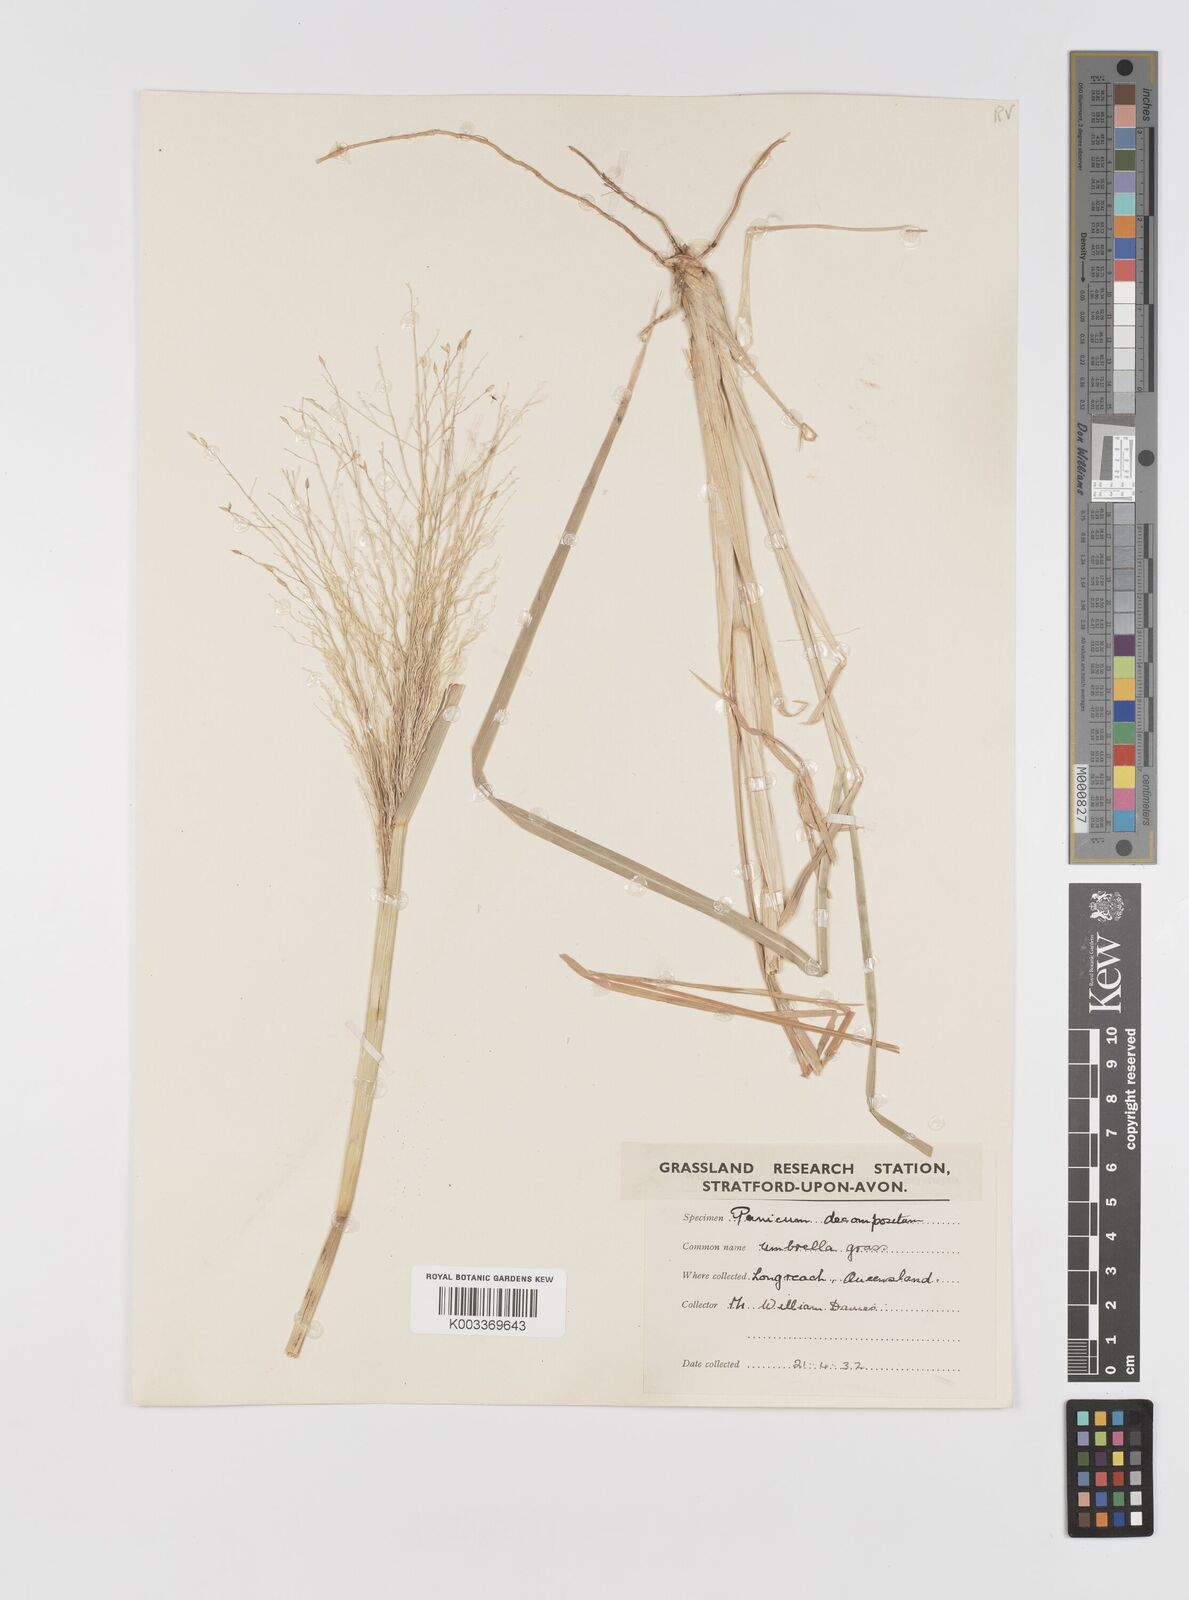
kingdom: Plantae
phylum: Tracheophyta
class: Liliopsida
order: Poales
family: Poaceae
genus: Panicum
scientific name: Panicum decompositum
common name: Australian millet
